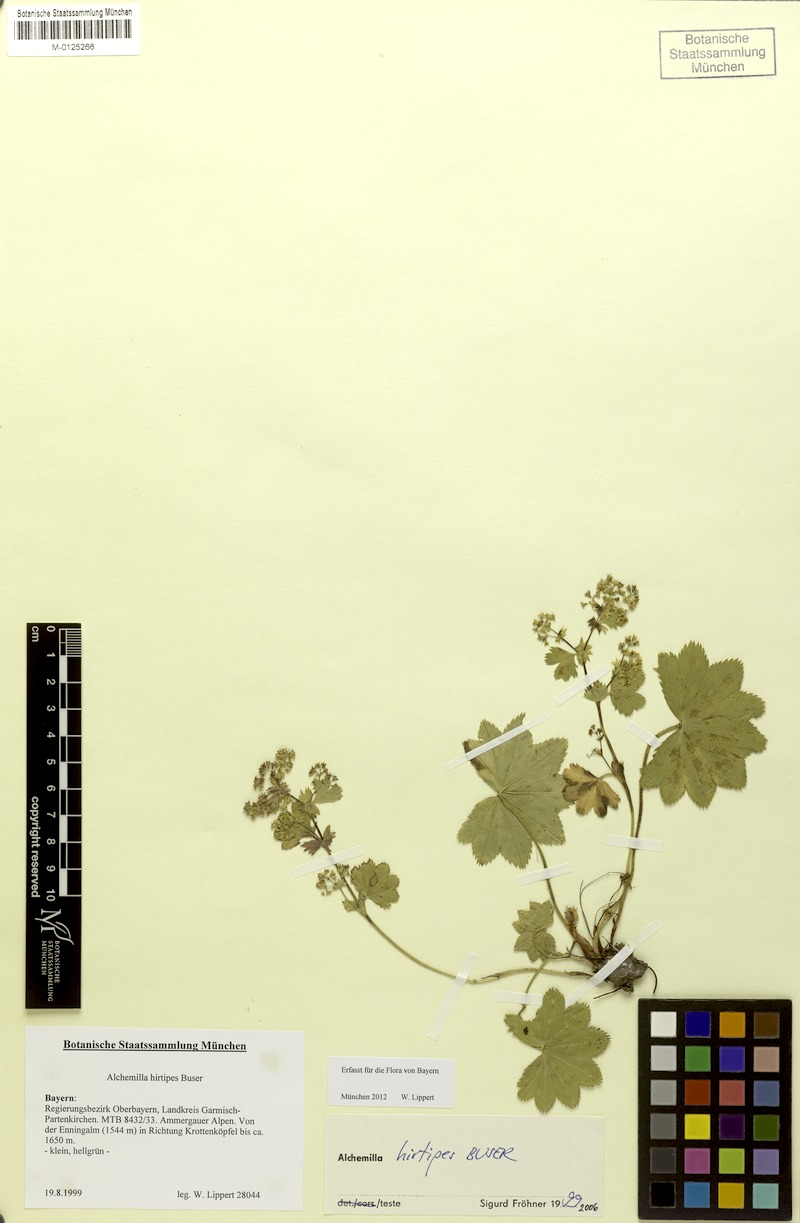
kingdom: Plantae
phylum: Tracheophyta
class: Magnoliopsida
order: Rosales
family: Rosaceae
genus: Alchemilla
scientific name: Alchemilla hirtipes
